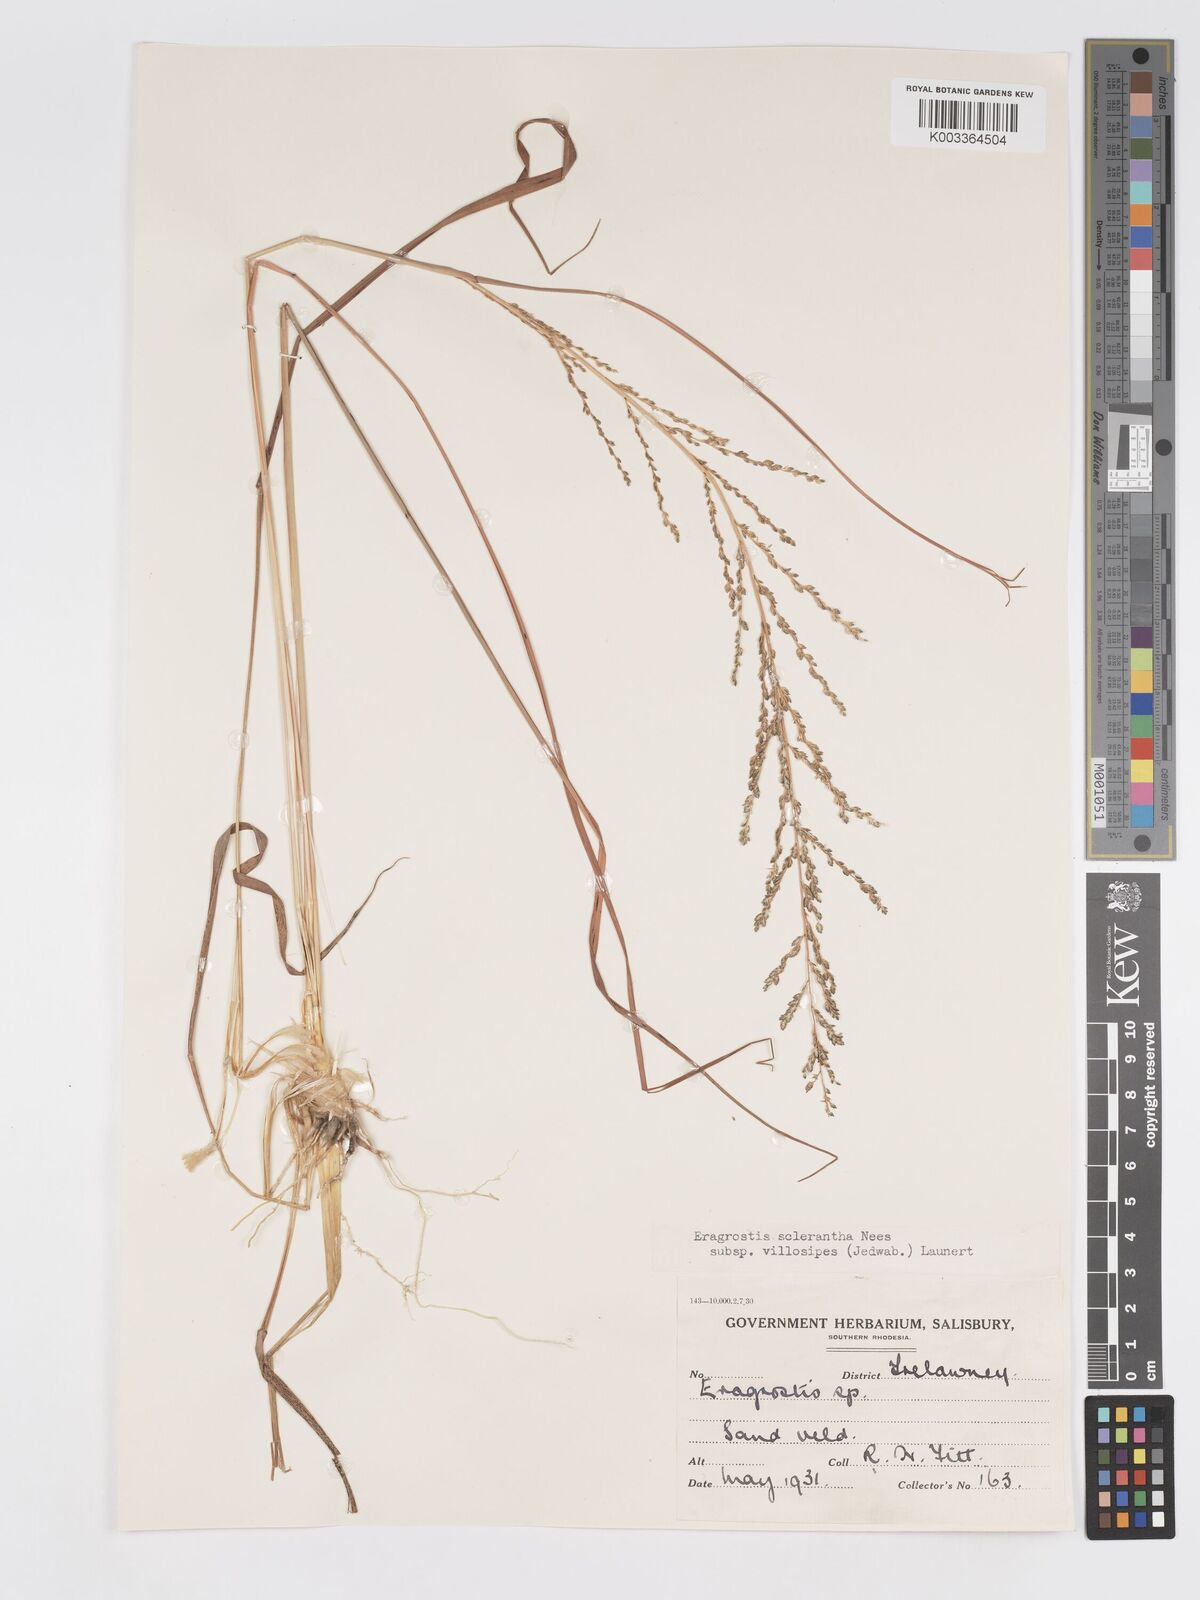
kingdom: Plantae
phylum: Tracheophyta
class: Liliopsida
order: Poales
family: Poaceae
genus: Eragrostis
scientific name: Eragrostis sclerantha
